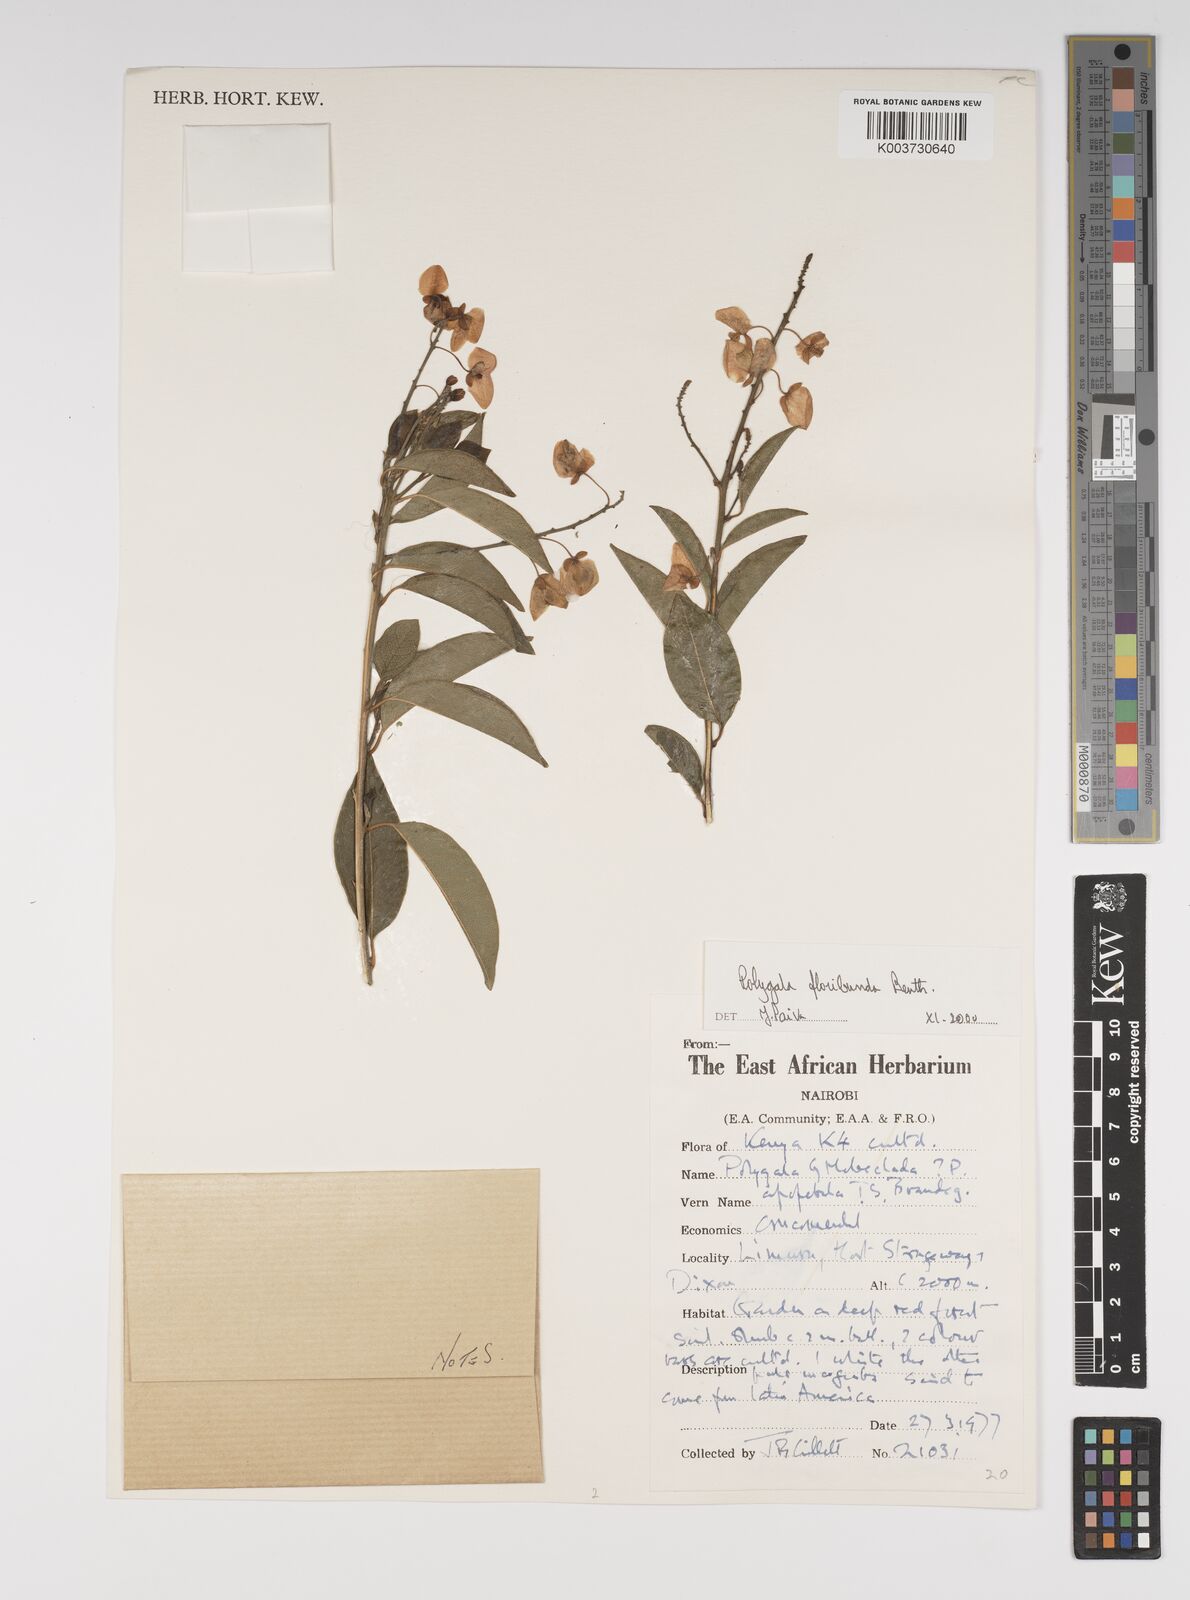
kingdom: Plantae
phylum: Tracheophyta
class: Magnoliopsida
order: Fabales
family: Polygalaceae
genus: Asemeia
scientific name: Asemeia floribunda
